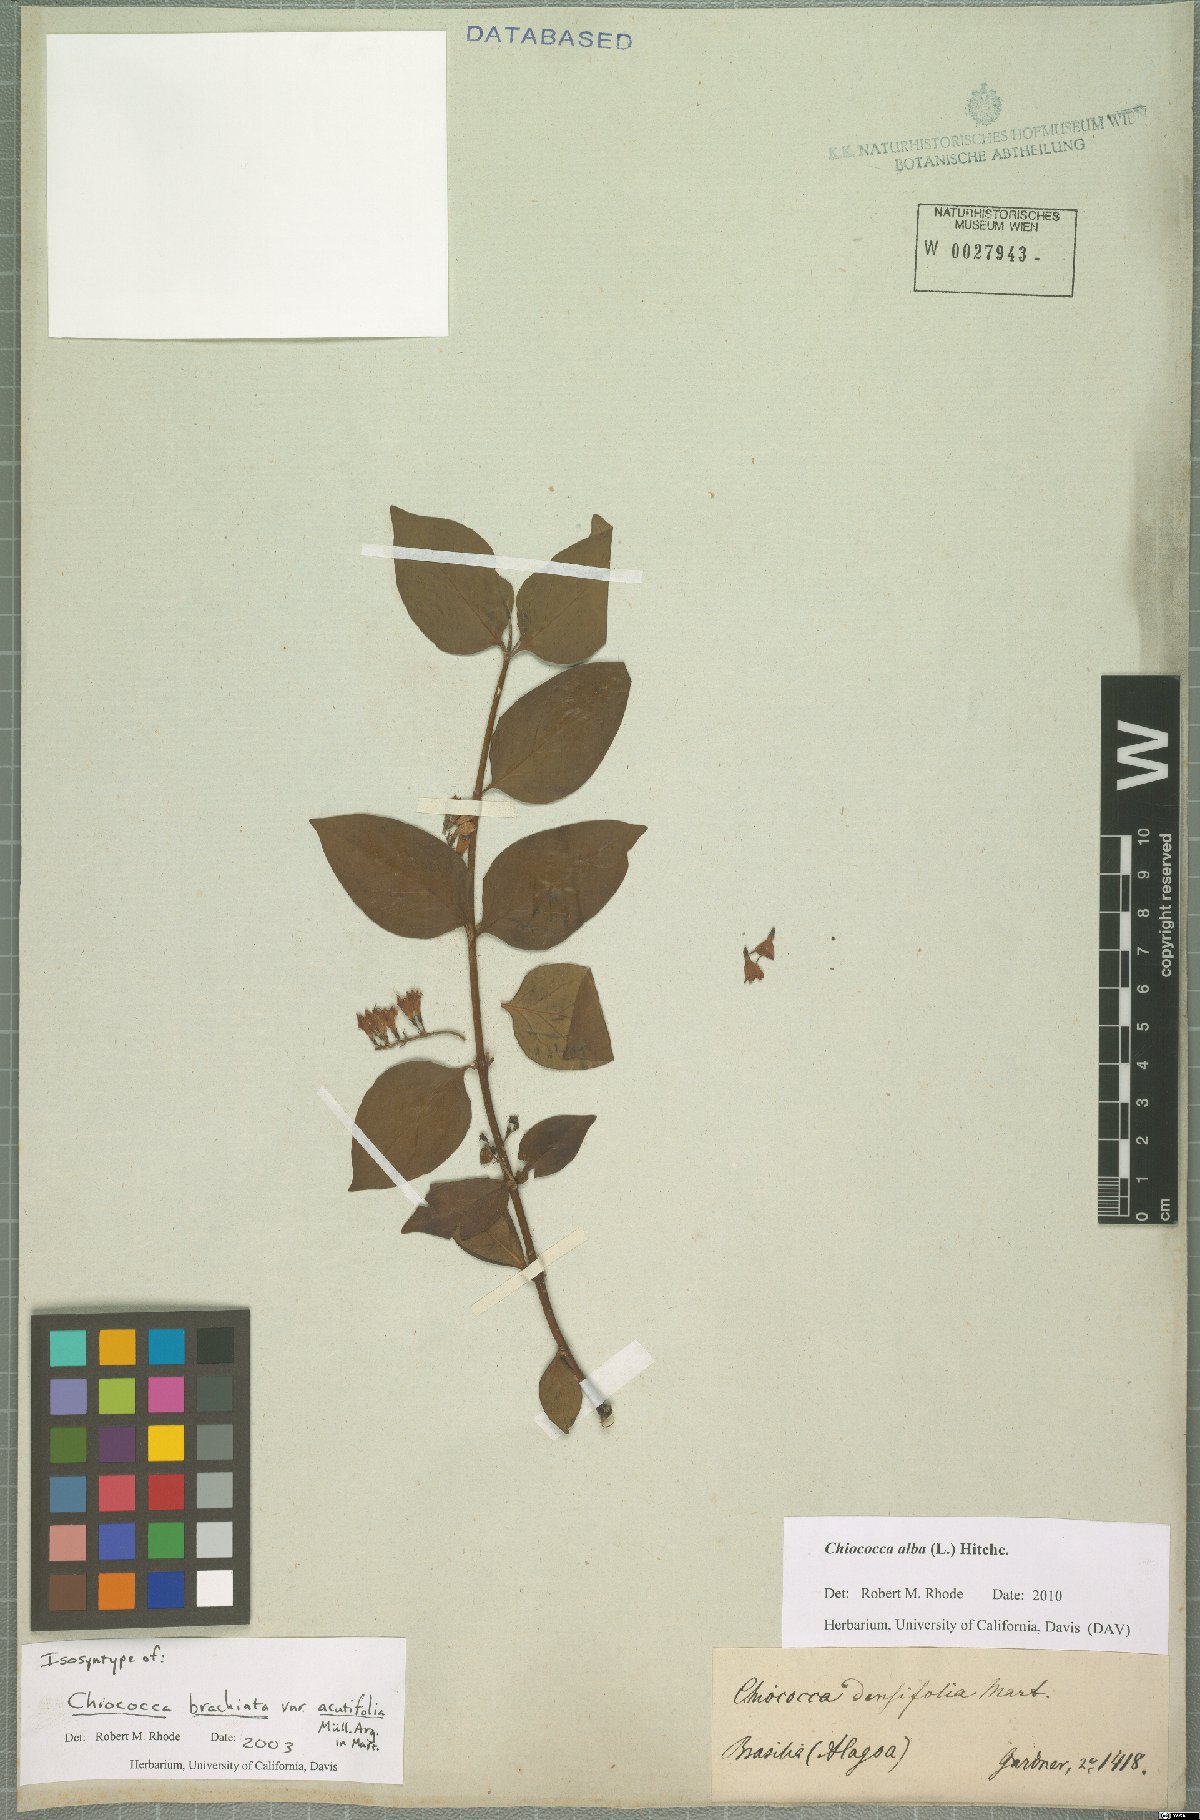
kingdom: Plantae
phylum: Tracheophyta
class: Magnoliopsida
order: Gentianales
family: Rubiaceae
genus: Chiococca
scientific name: Chiococca alba
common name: Snowberry
